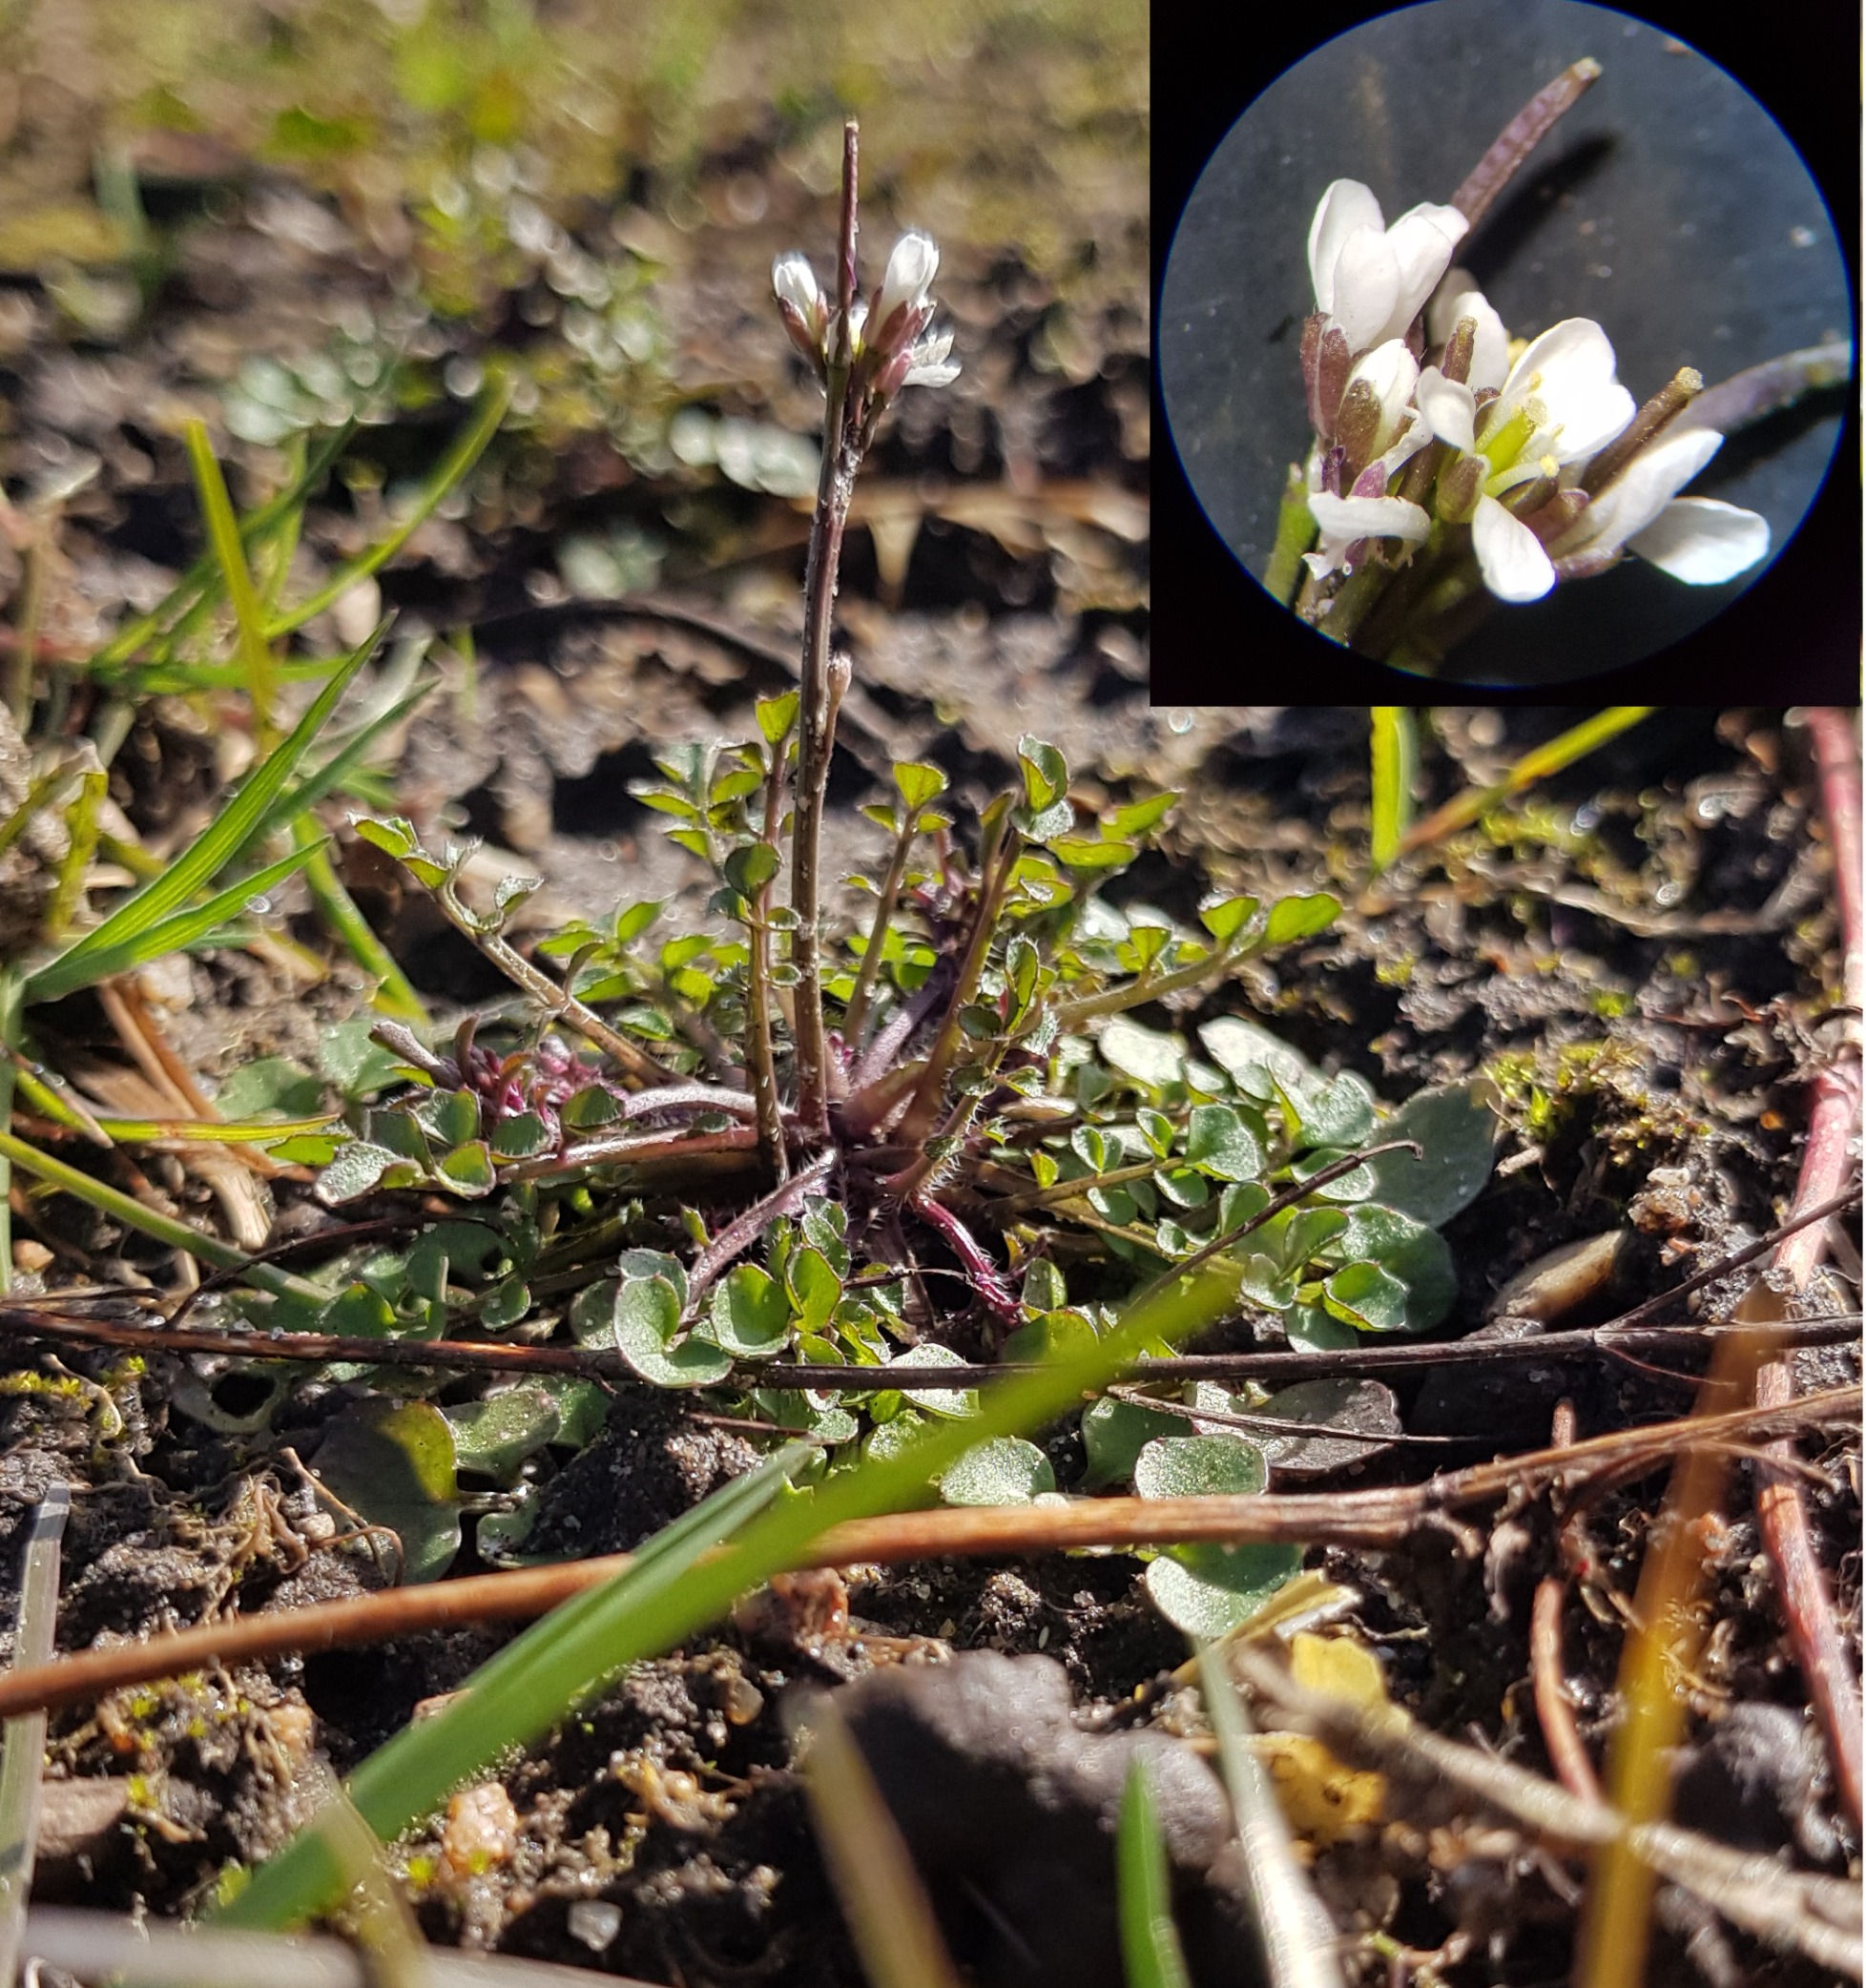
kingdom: Plantae
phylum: Tracheophyta
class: Magnoliopsida
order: Brassicales
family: Brassicaceae
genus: Cardamine
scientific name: Cardamine hirsuta
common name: Roset-springklap
